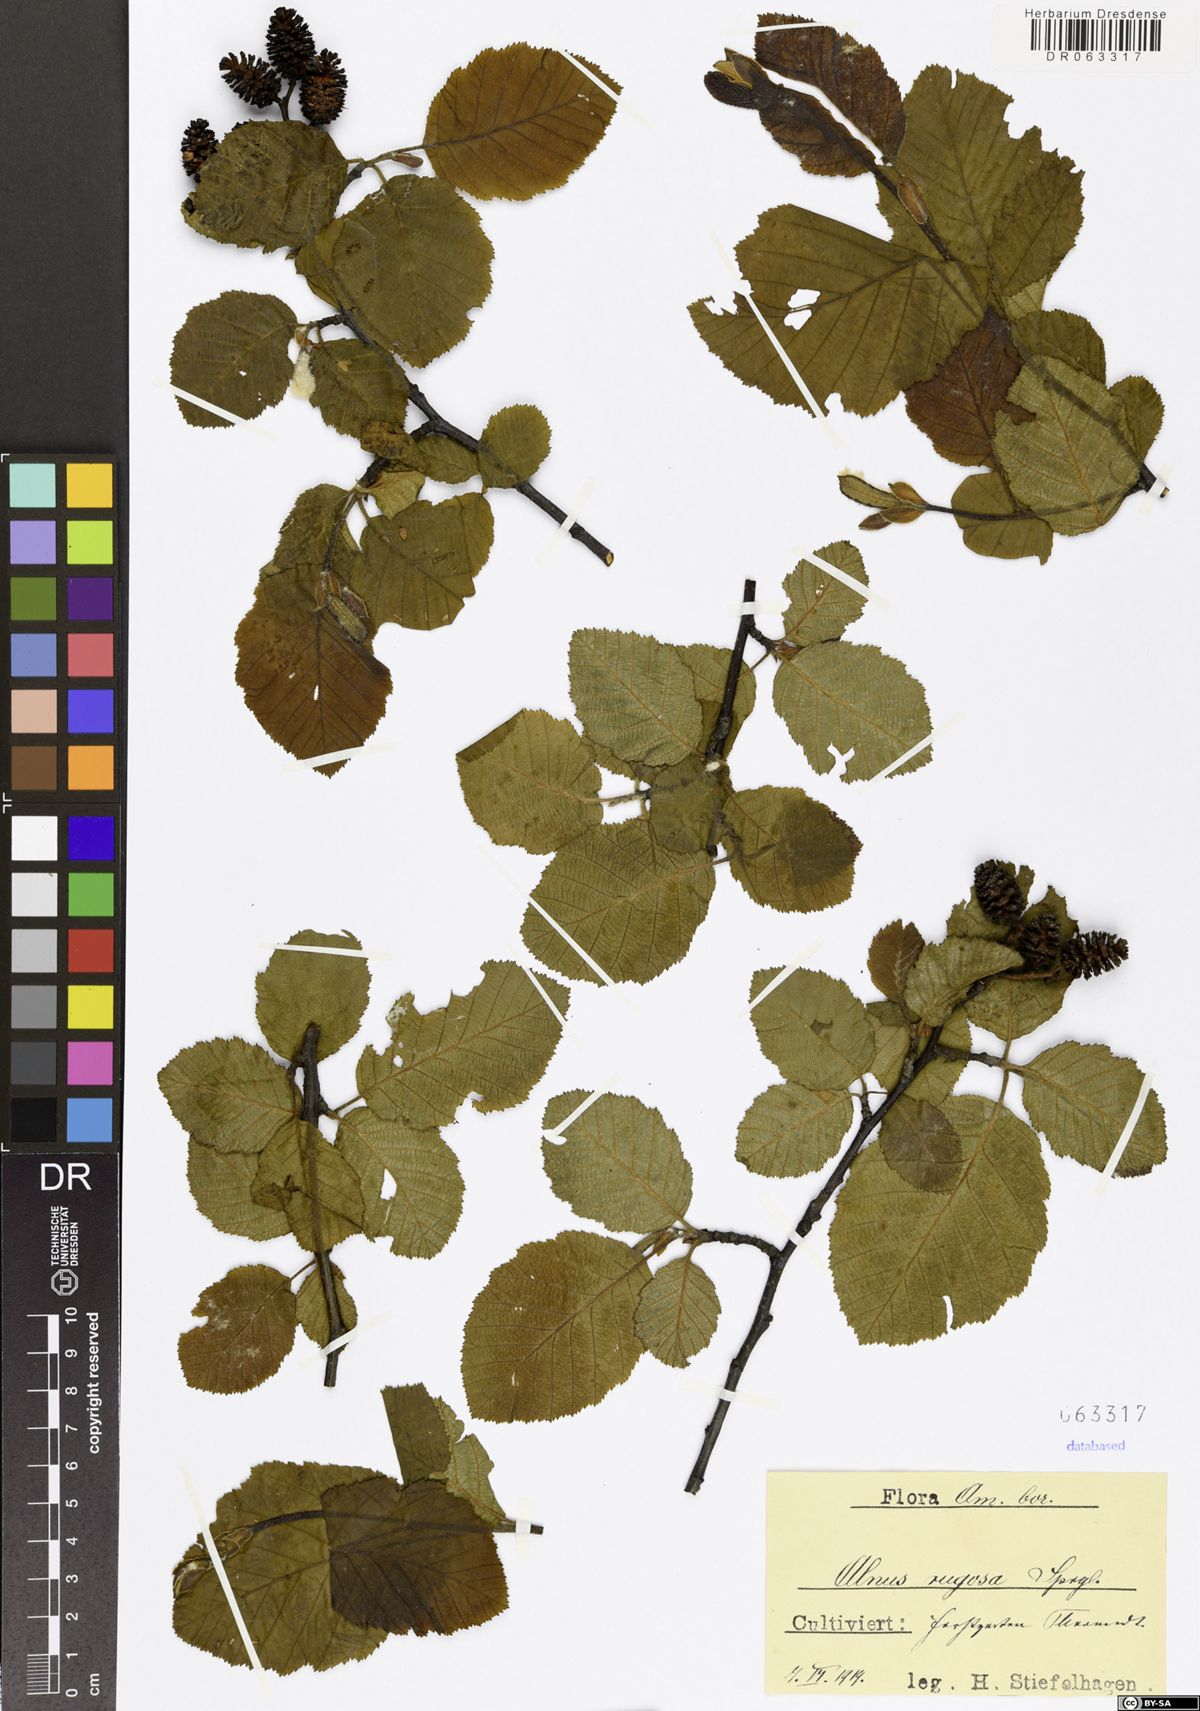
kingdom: Plantae
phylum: Tracheophyta
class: Magnoliopsida
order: Fagales
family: Betulaceae
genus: Alnus
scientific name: Alnus incana
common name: Grey alder
